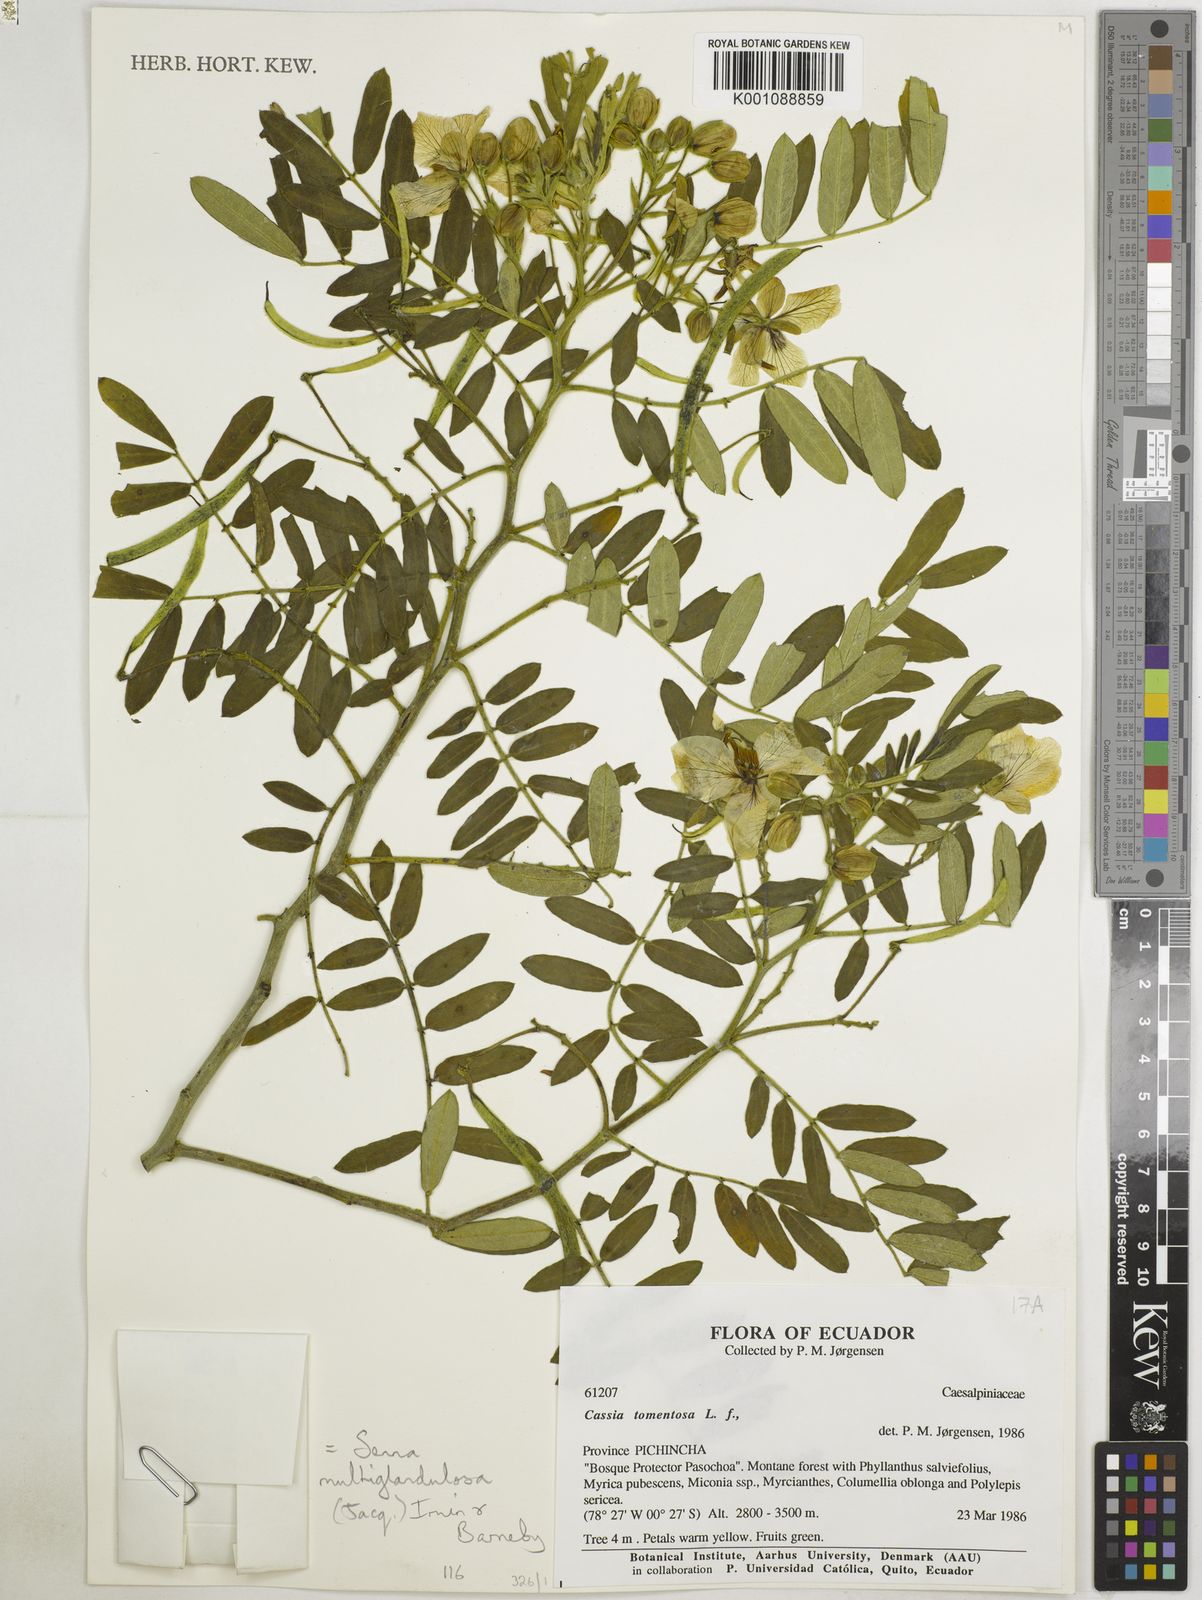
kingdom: Plantae
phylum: Tracheophyta
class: Magnoliopsida
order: Fabales
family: Fabaceae
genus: Senna
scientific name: Senna multiglandulosa
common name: Glandular senna
